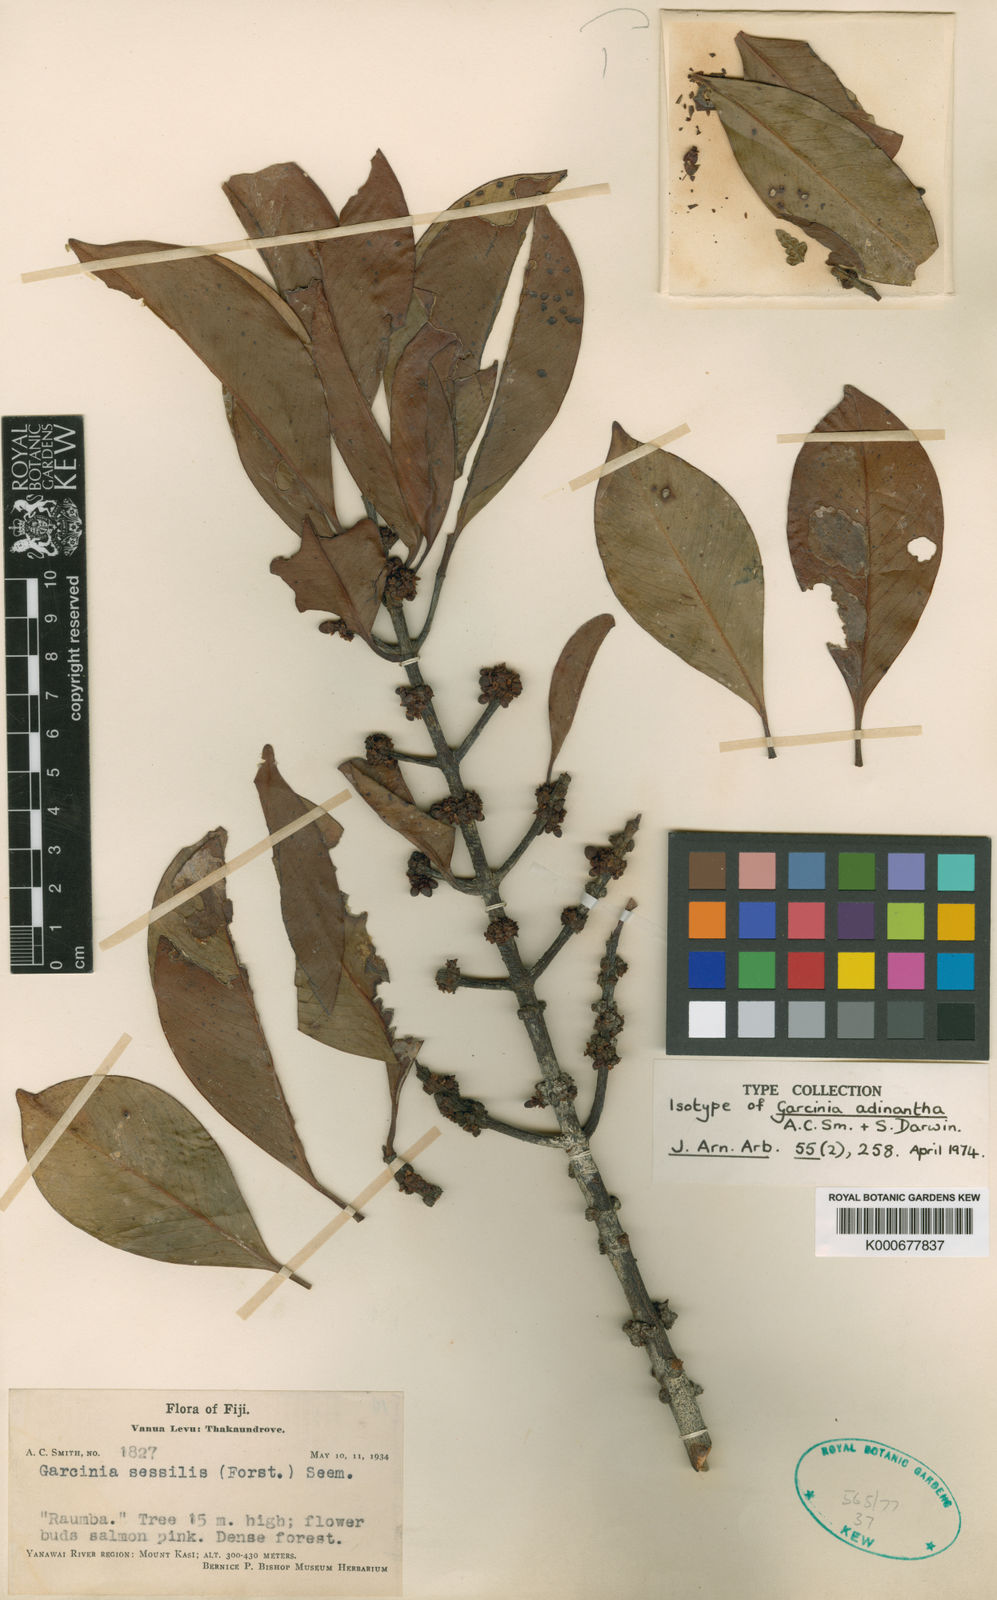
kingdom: Plantae
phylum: Tracheophyta
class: Magnoliopsida
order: Malpighiales
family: Clusiaceae
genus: Garcinia
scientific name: Garcinia adinantha
